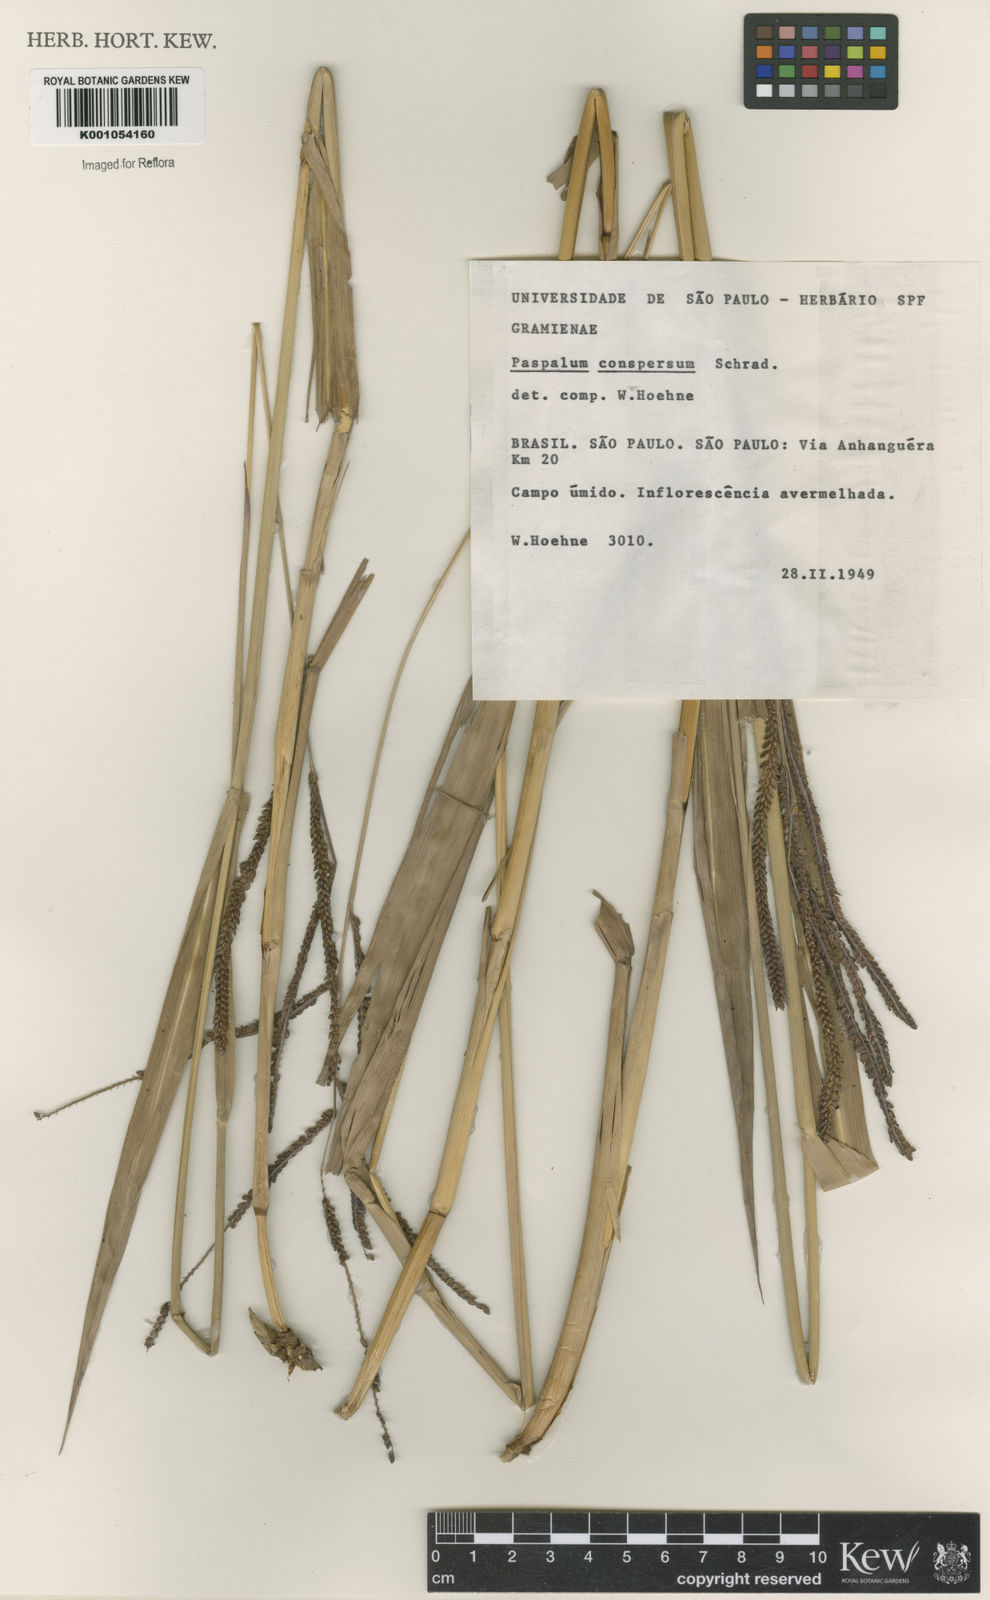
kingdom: Plantae
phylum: Tracheophyta
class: Liliopsida
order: Poales
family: Poaceae
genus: Paspalum
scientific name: Paspalum conspersum
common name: Scattered paspalum
